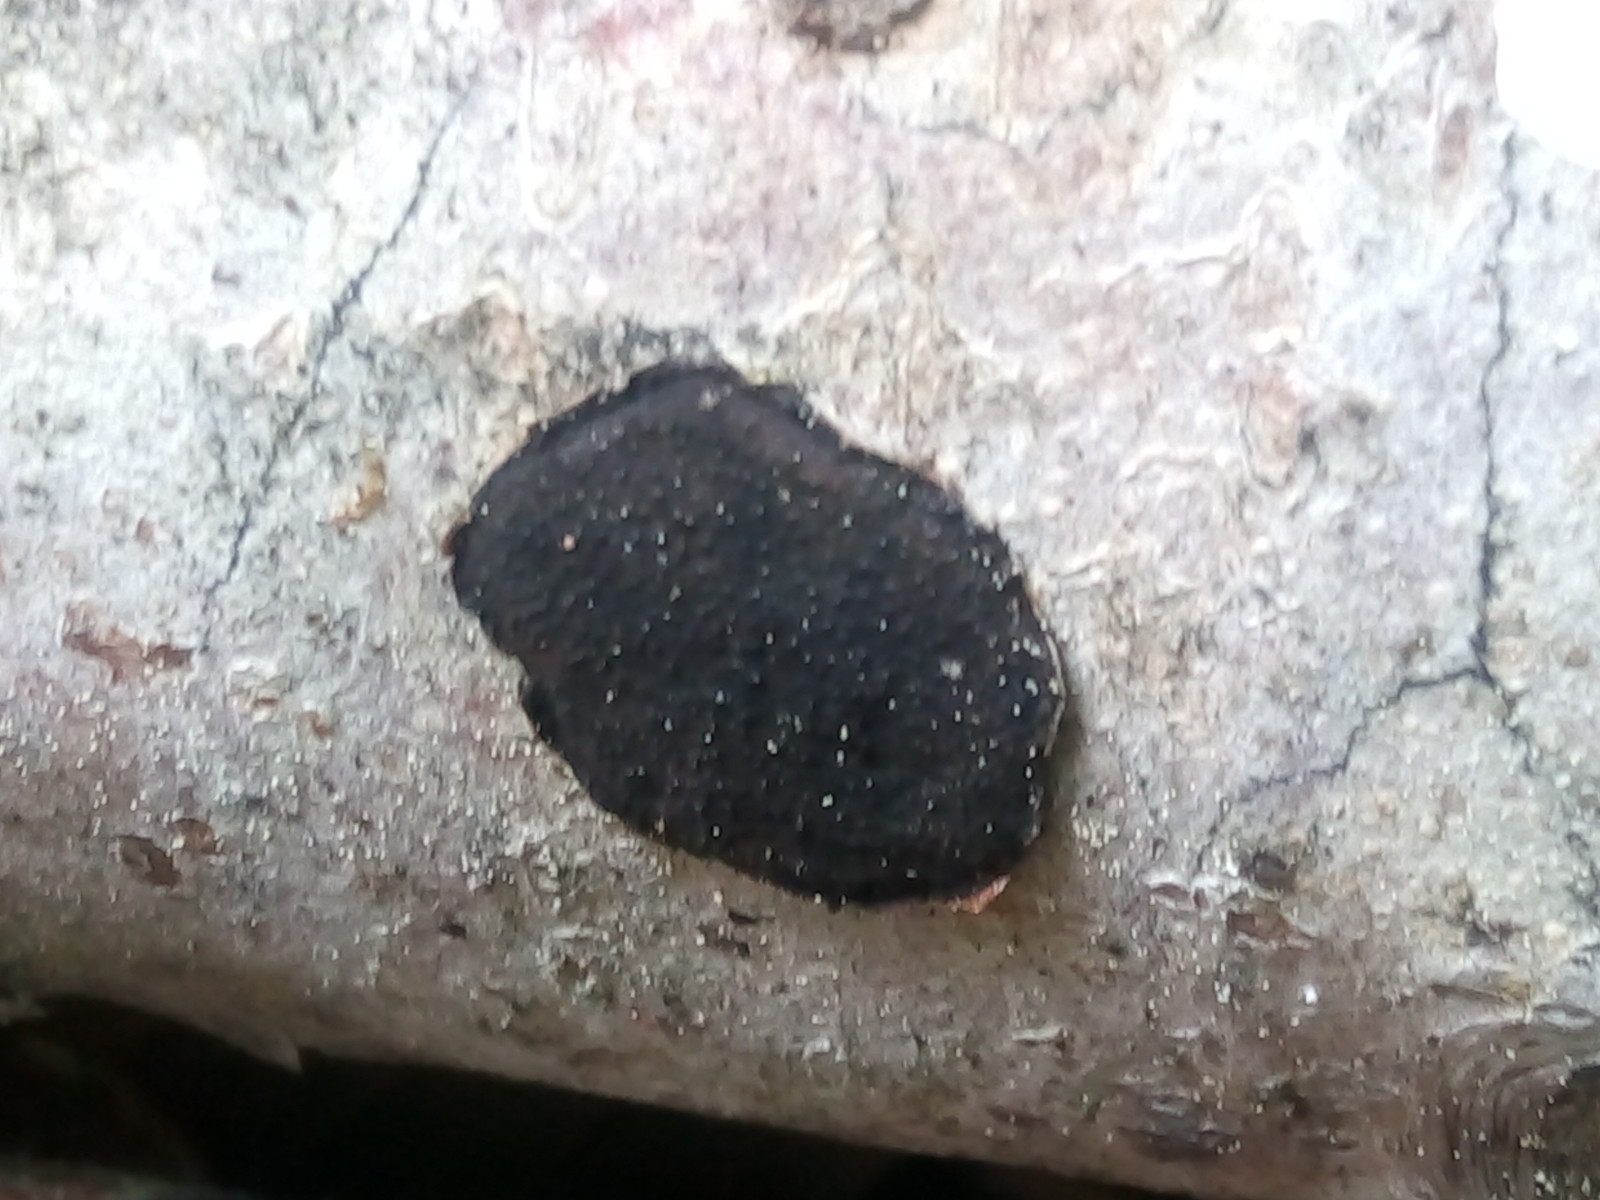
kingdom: Fungi
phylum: Ascomycota
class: Sordariomycetes
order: Xylariales
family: Graphostromataceae
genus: Biscogniauxia
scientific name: Biscogniauxia nummularia
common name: bøge-kulskive
